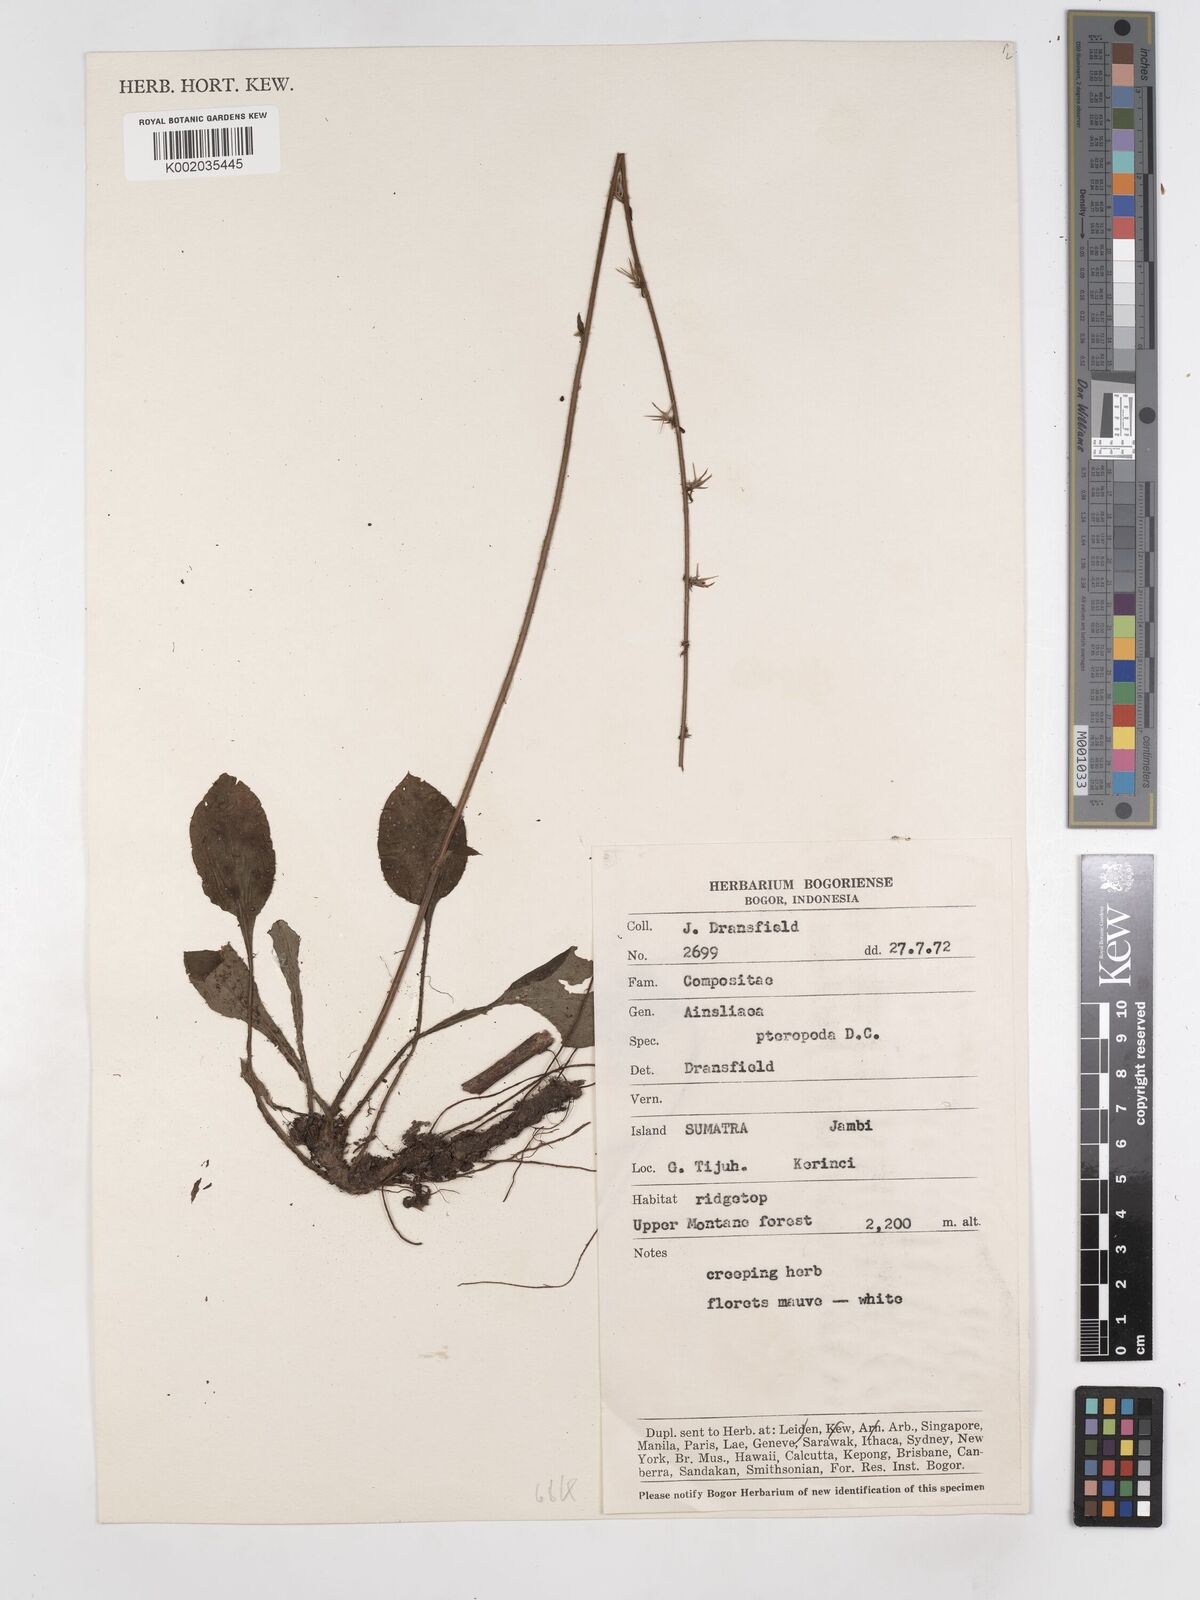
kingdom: Plantae
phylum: Tracheophyta
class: Magnoliopsida
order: Asterales
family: Asteraceae
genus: Ainsliaea
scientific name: Ainsliaea latifolia
